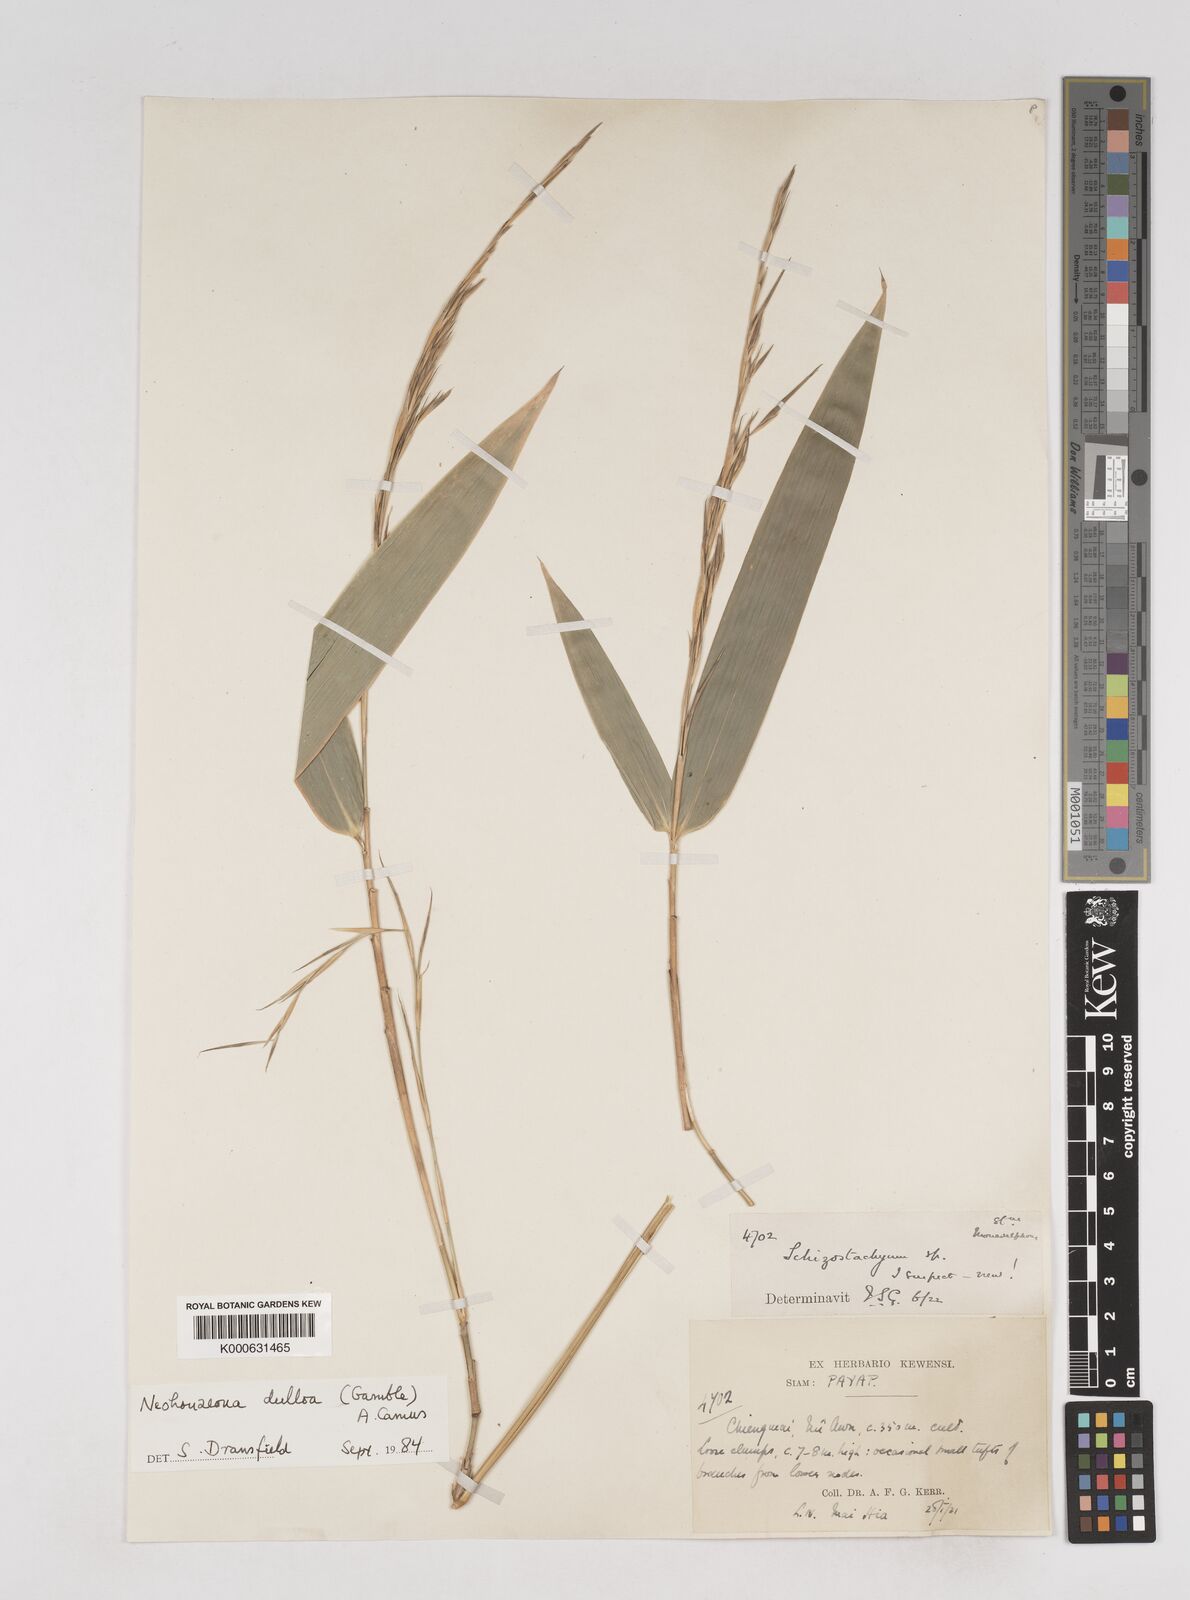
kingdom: Plantae
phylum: Tracheophyta
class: Liliopsida
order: Poales
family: Poaceae
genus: Schizostachyum
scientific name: Schizostachyum dullooa
